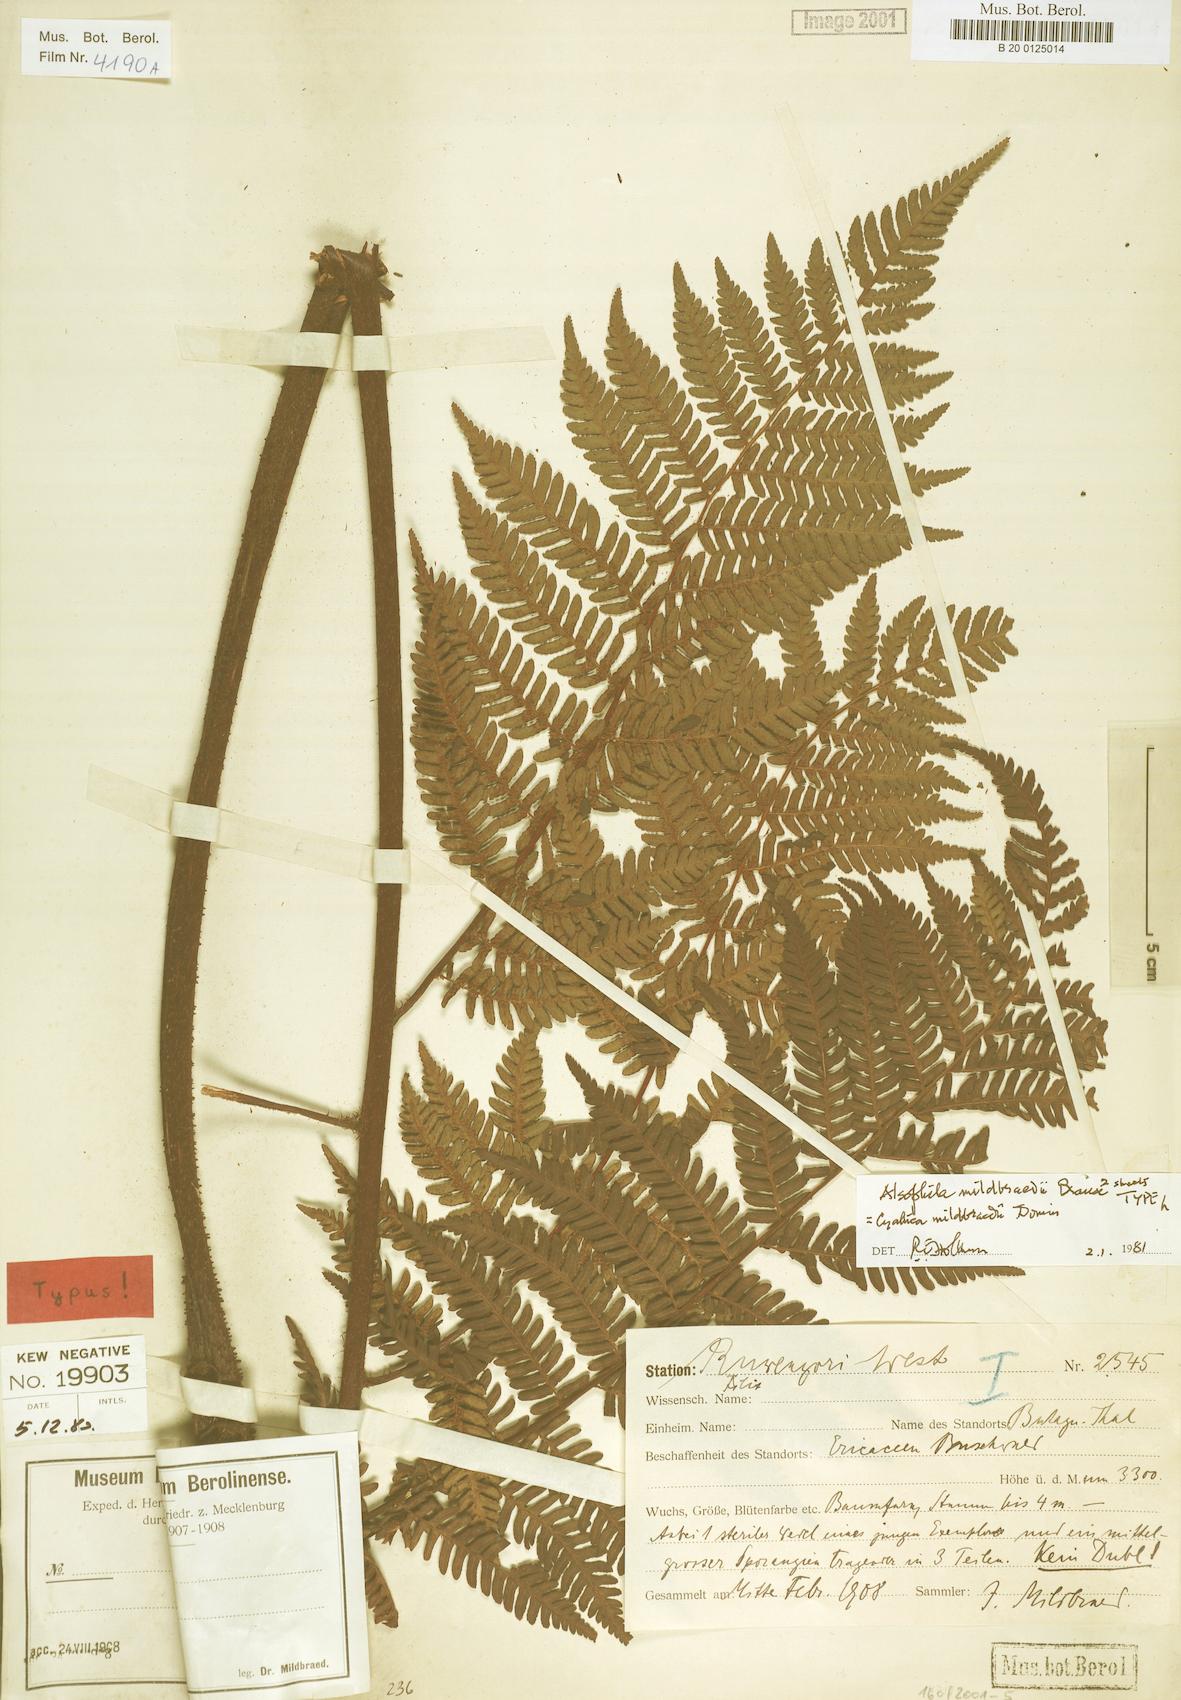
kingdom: Plantae
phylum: Tracheophyta
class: Polypodiopsida
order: Cyatheales
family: Cyatheaceae
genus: Gymnosphaera
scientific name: Gymnosphaera mildbraedii
